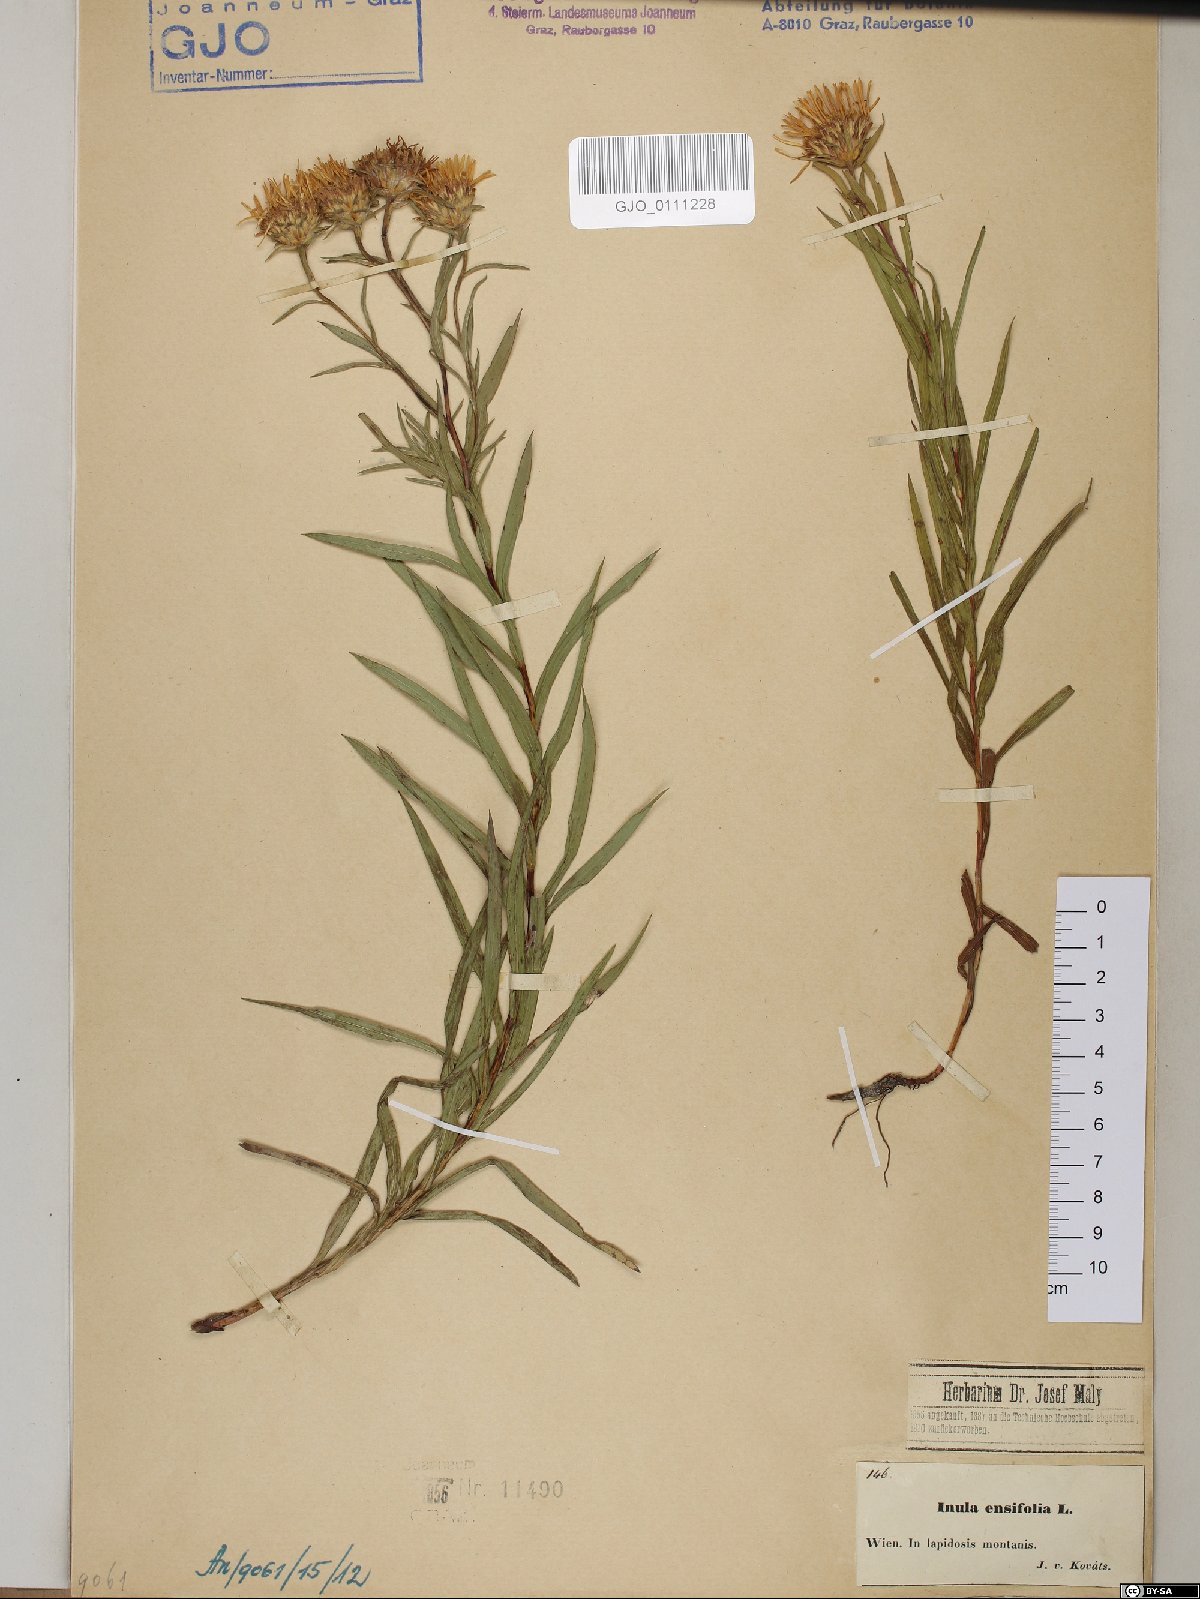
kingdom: Plantae
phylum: Tracheophyta
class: Magnoliopsida
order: Asterales
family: Asteraceae
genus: Pentanema
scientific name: Pentanema ensifolium
